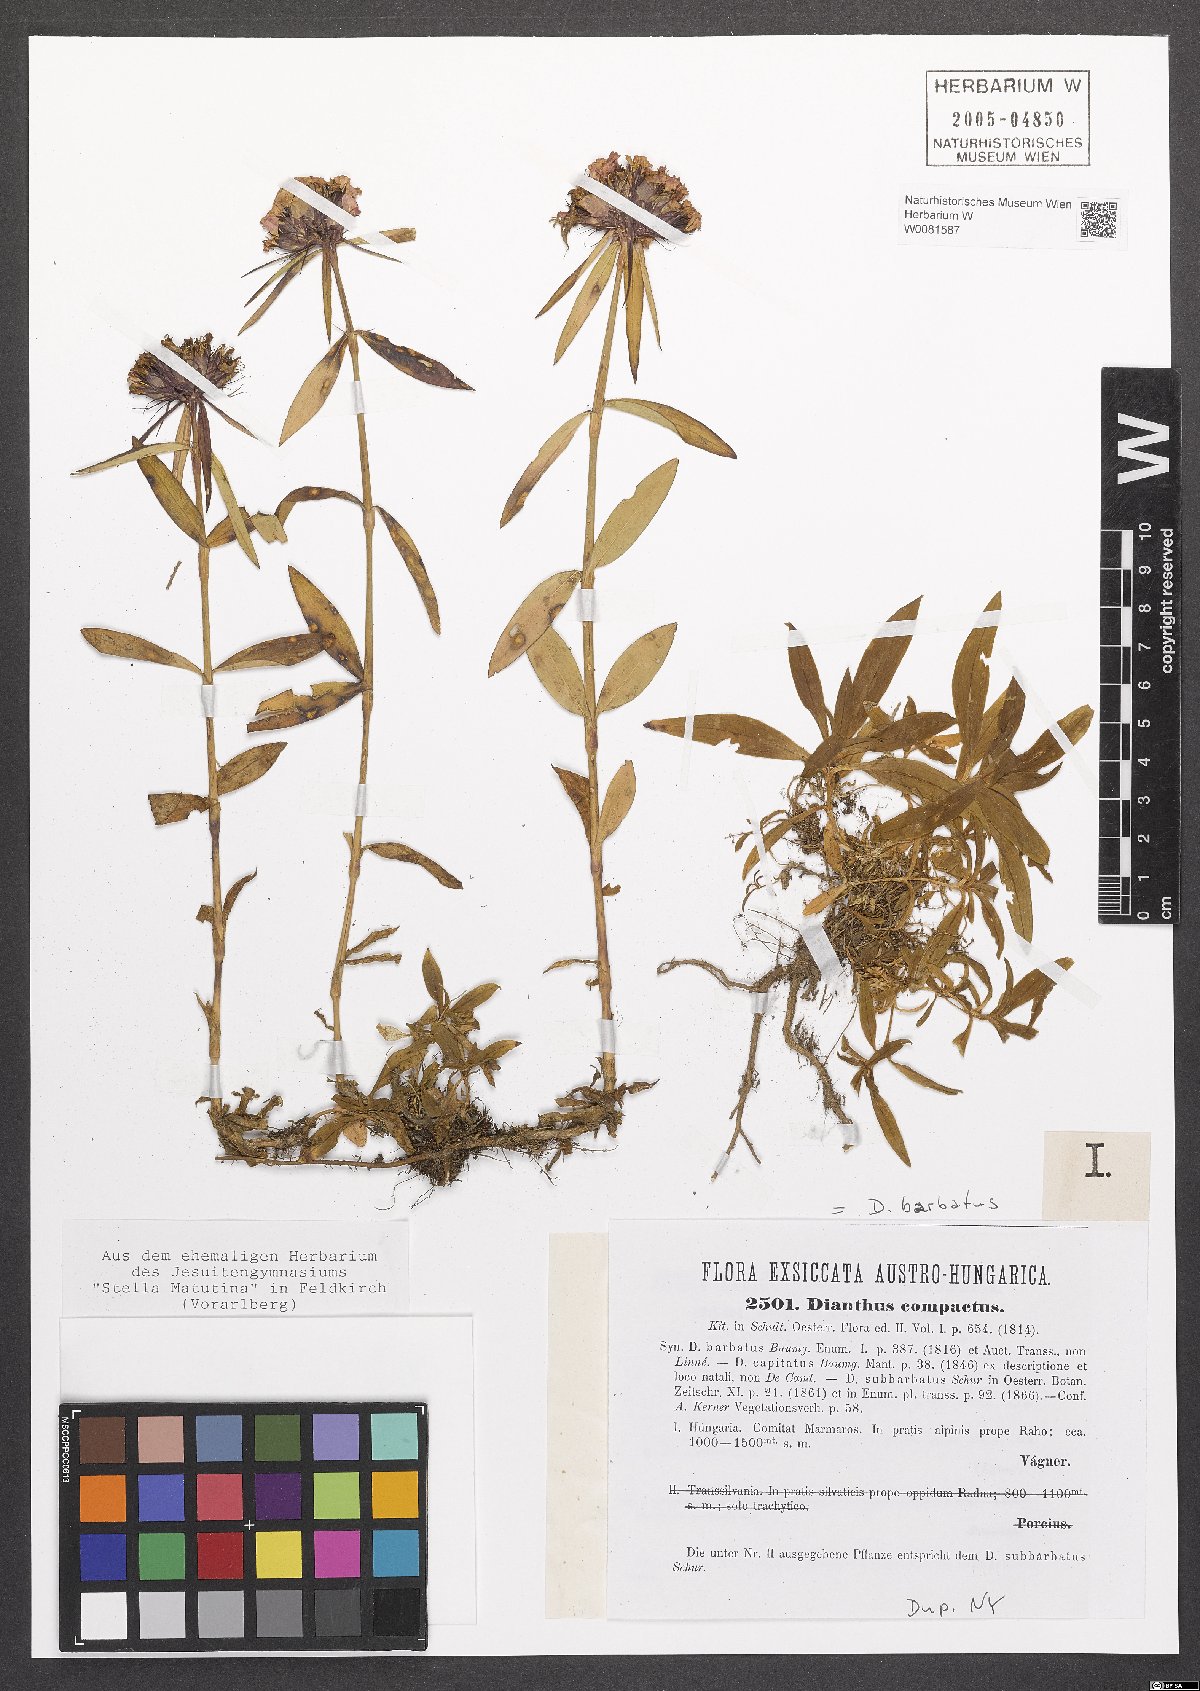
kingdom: Plantae
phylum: Tracheophyta
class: Magnoliopsida
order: Caryophyllales
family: Caryophyllaceae
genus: Dianthus
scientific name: Dianthus barbatus
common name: Sweet-william
